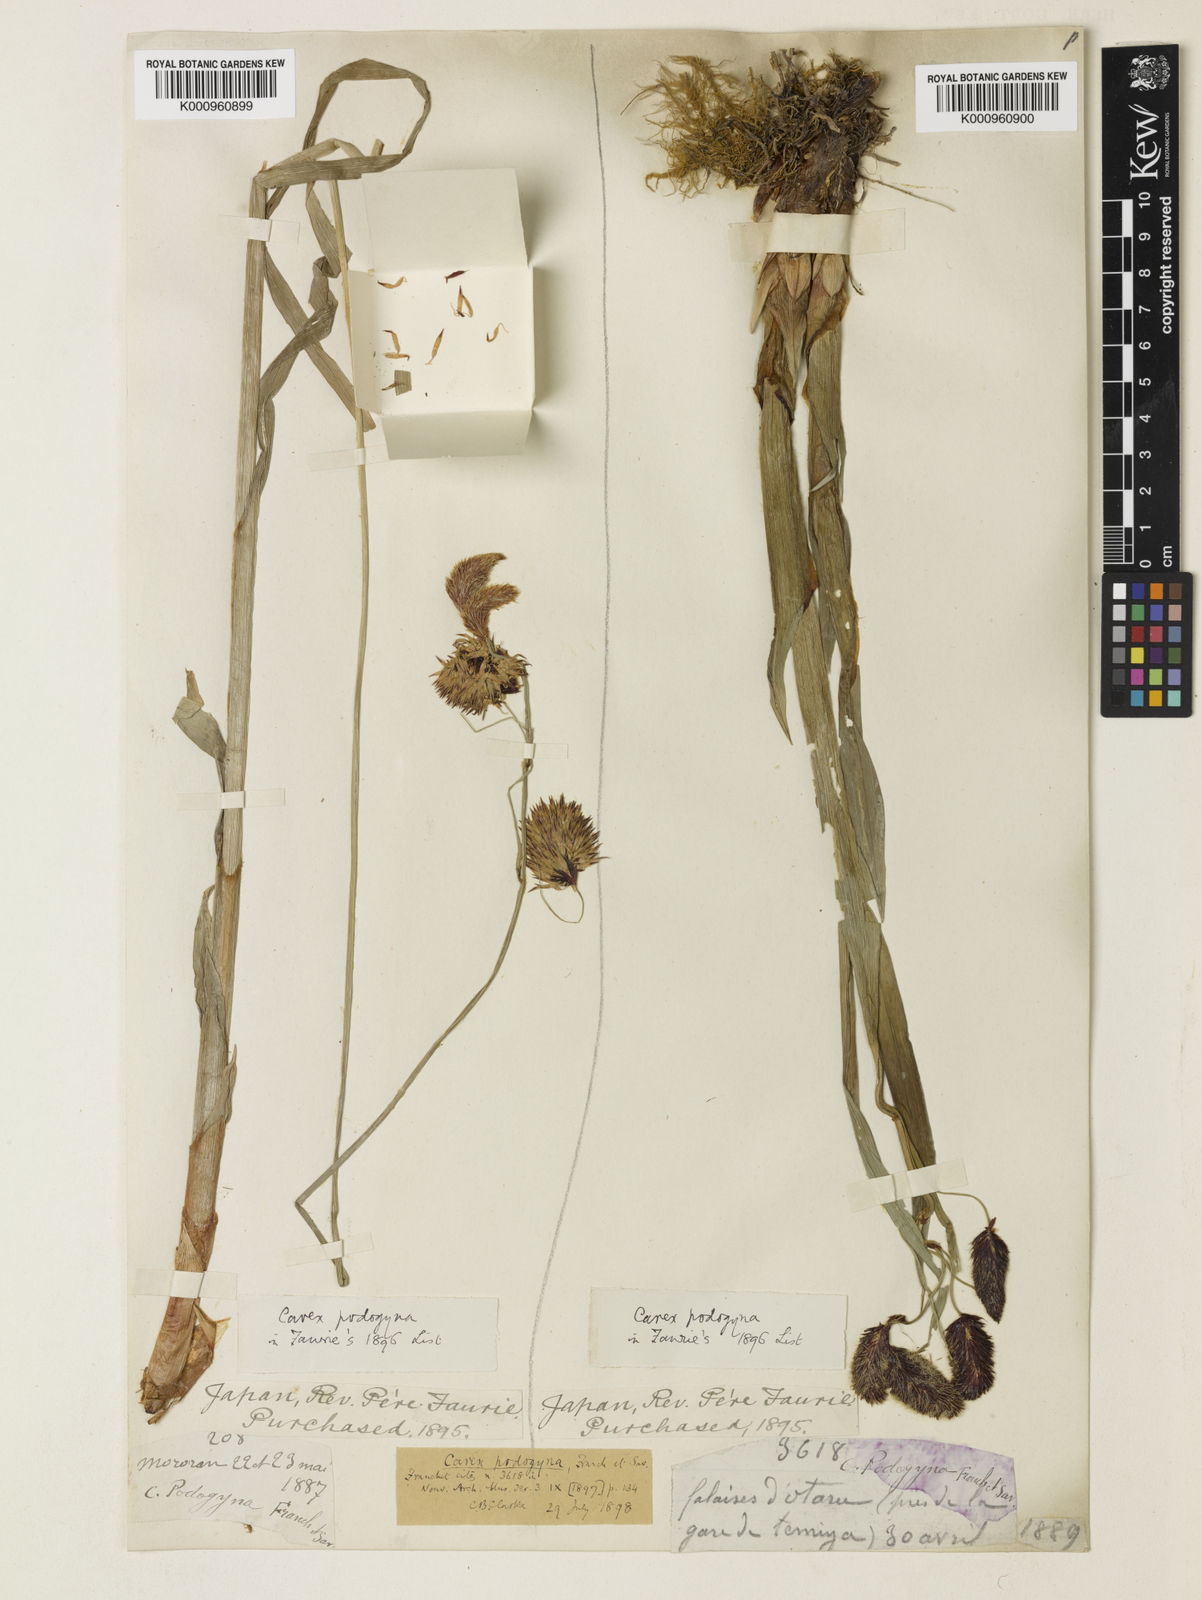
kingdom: Plantae
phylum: Tracheophyta
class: Liliopsida
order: Poales
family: Cyperaceae
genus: Carex
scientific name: Carex podogyna
